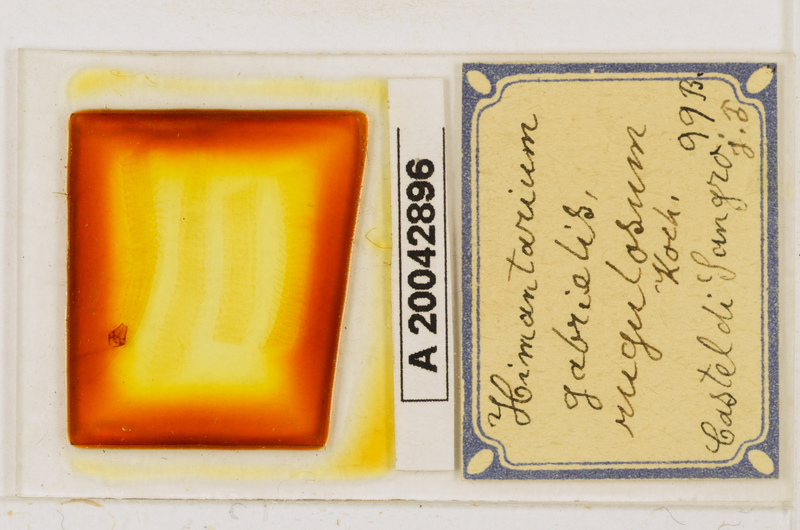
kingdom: Animalia
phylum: Arthropoda
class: Chilopoda
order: Geophilomorpha
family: Himantariidae
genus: Himantarium
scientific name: Himantarium gabrielis
